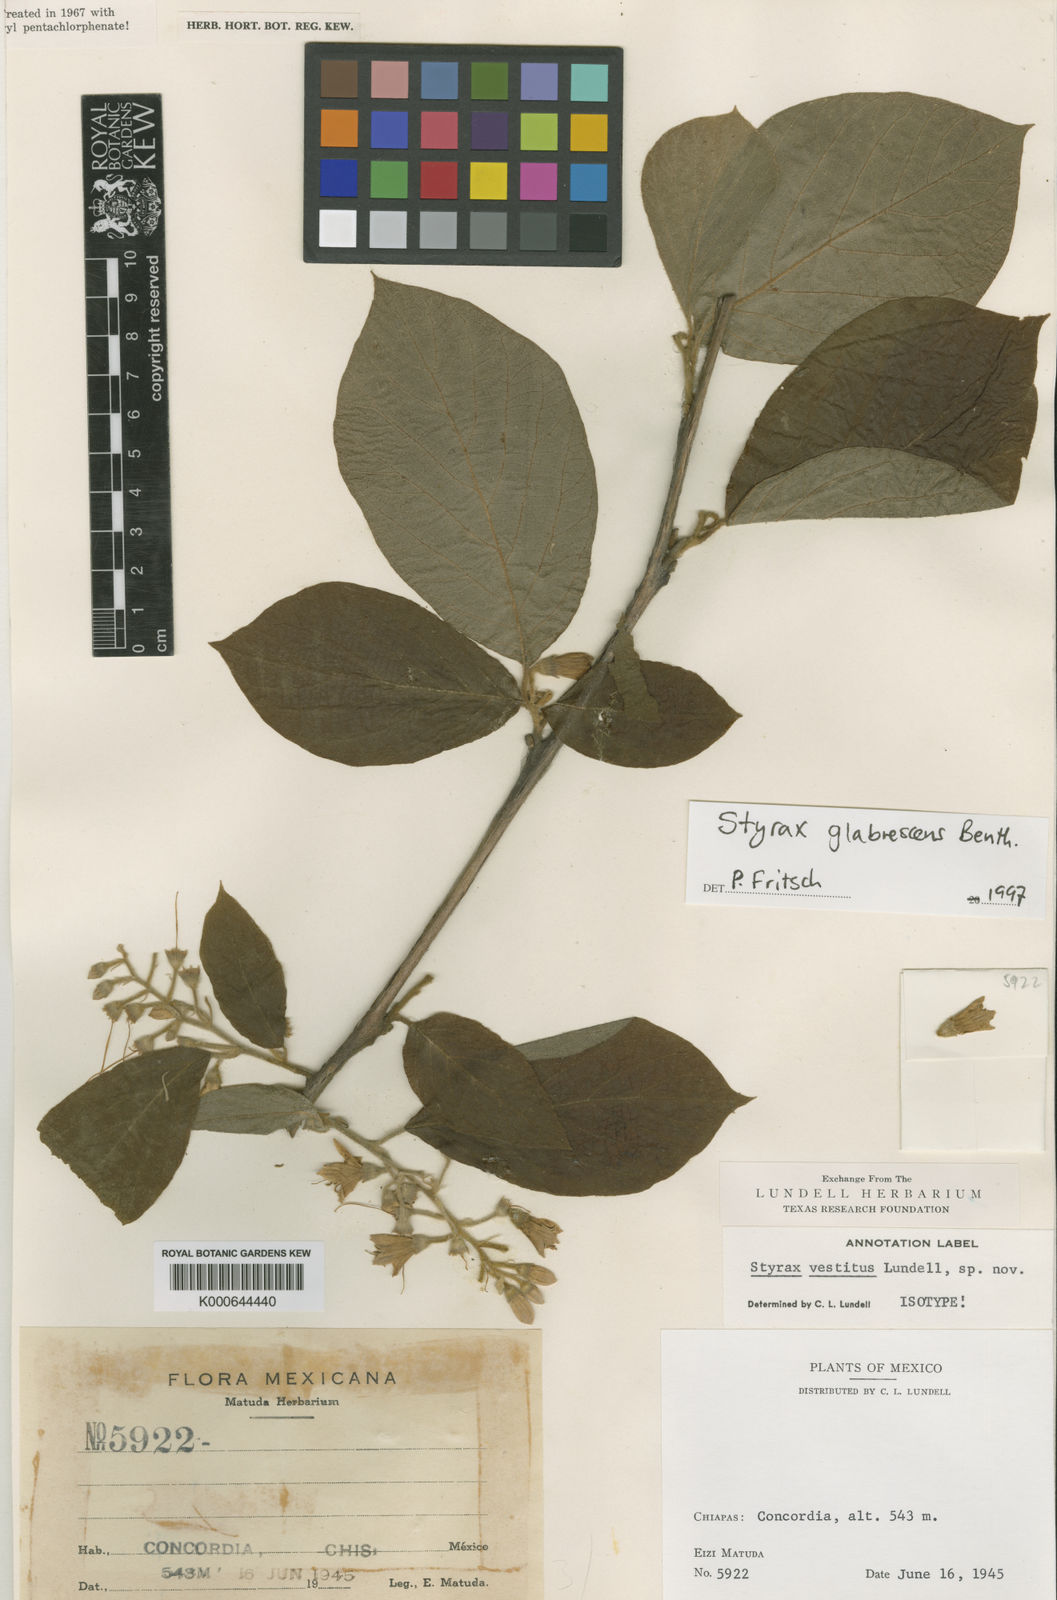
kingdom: Plantae
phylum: Tracheophyta
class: Magnoliopsida
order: Ericales
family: Styracaceae
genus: Styrax
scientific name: Styrax glabrescens
